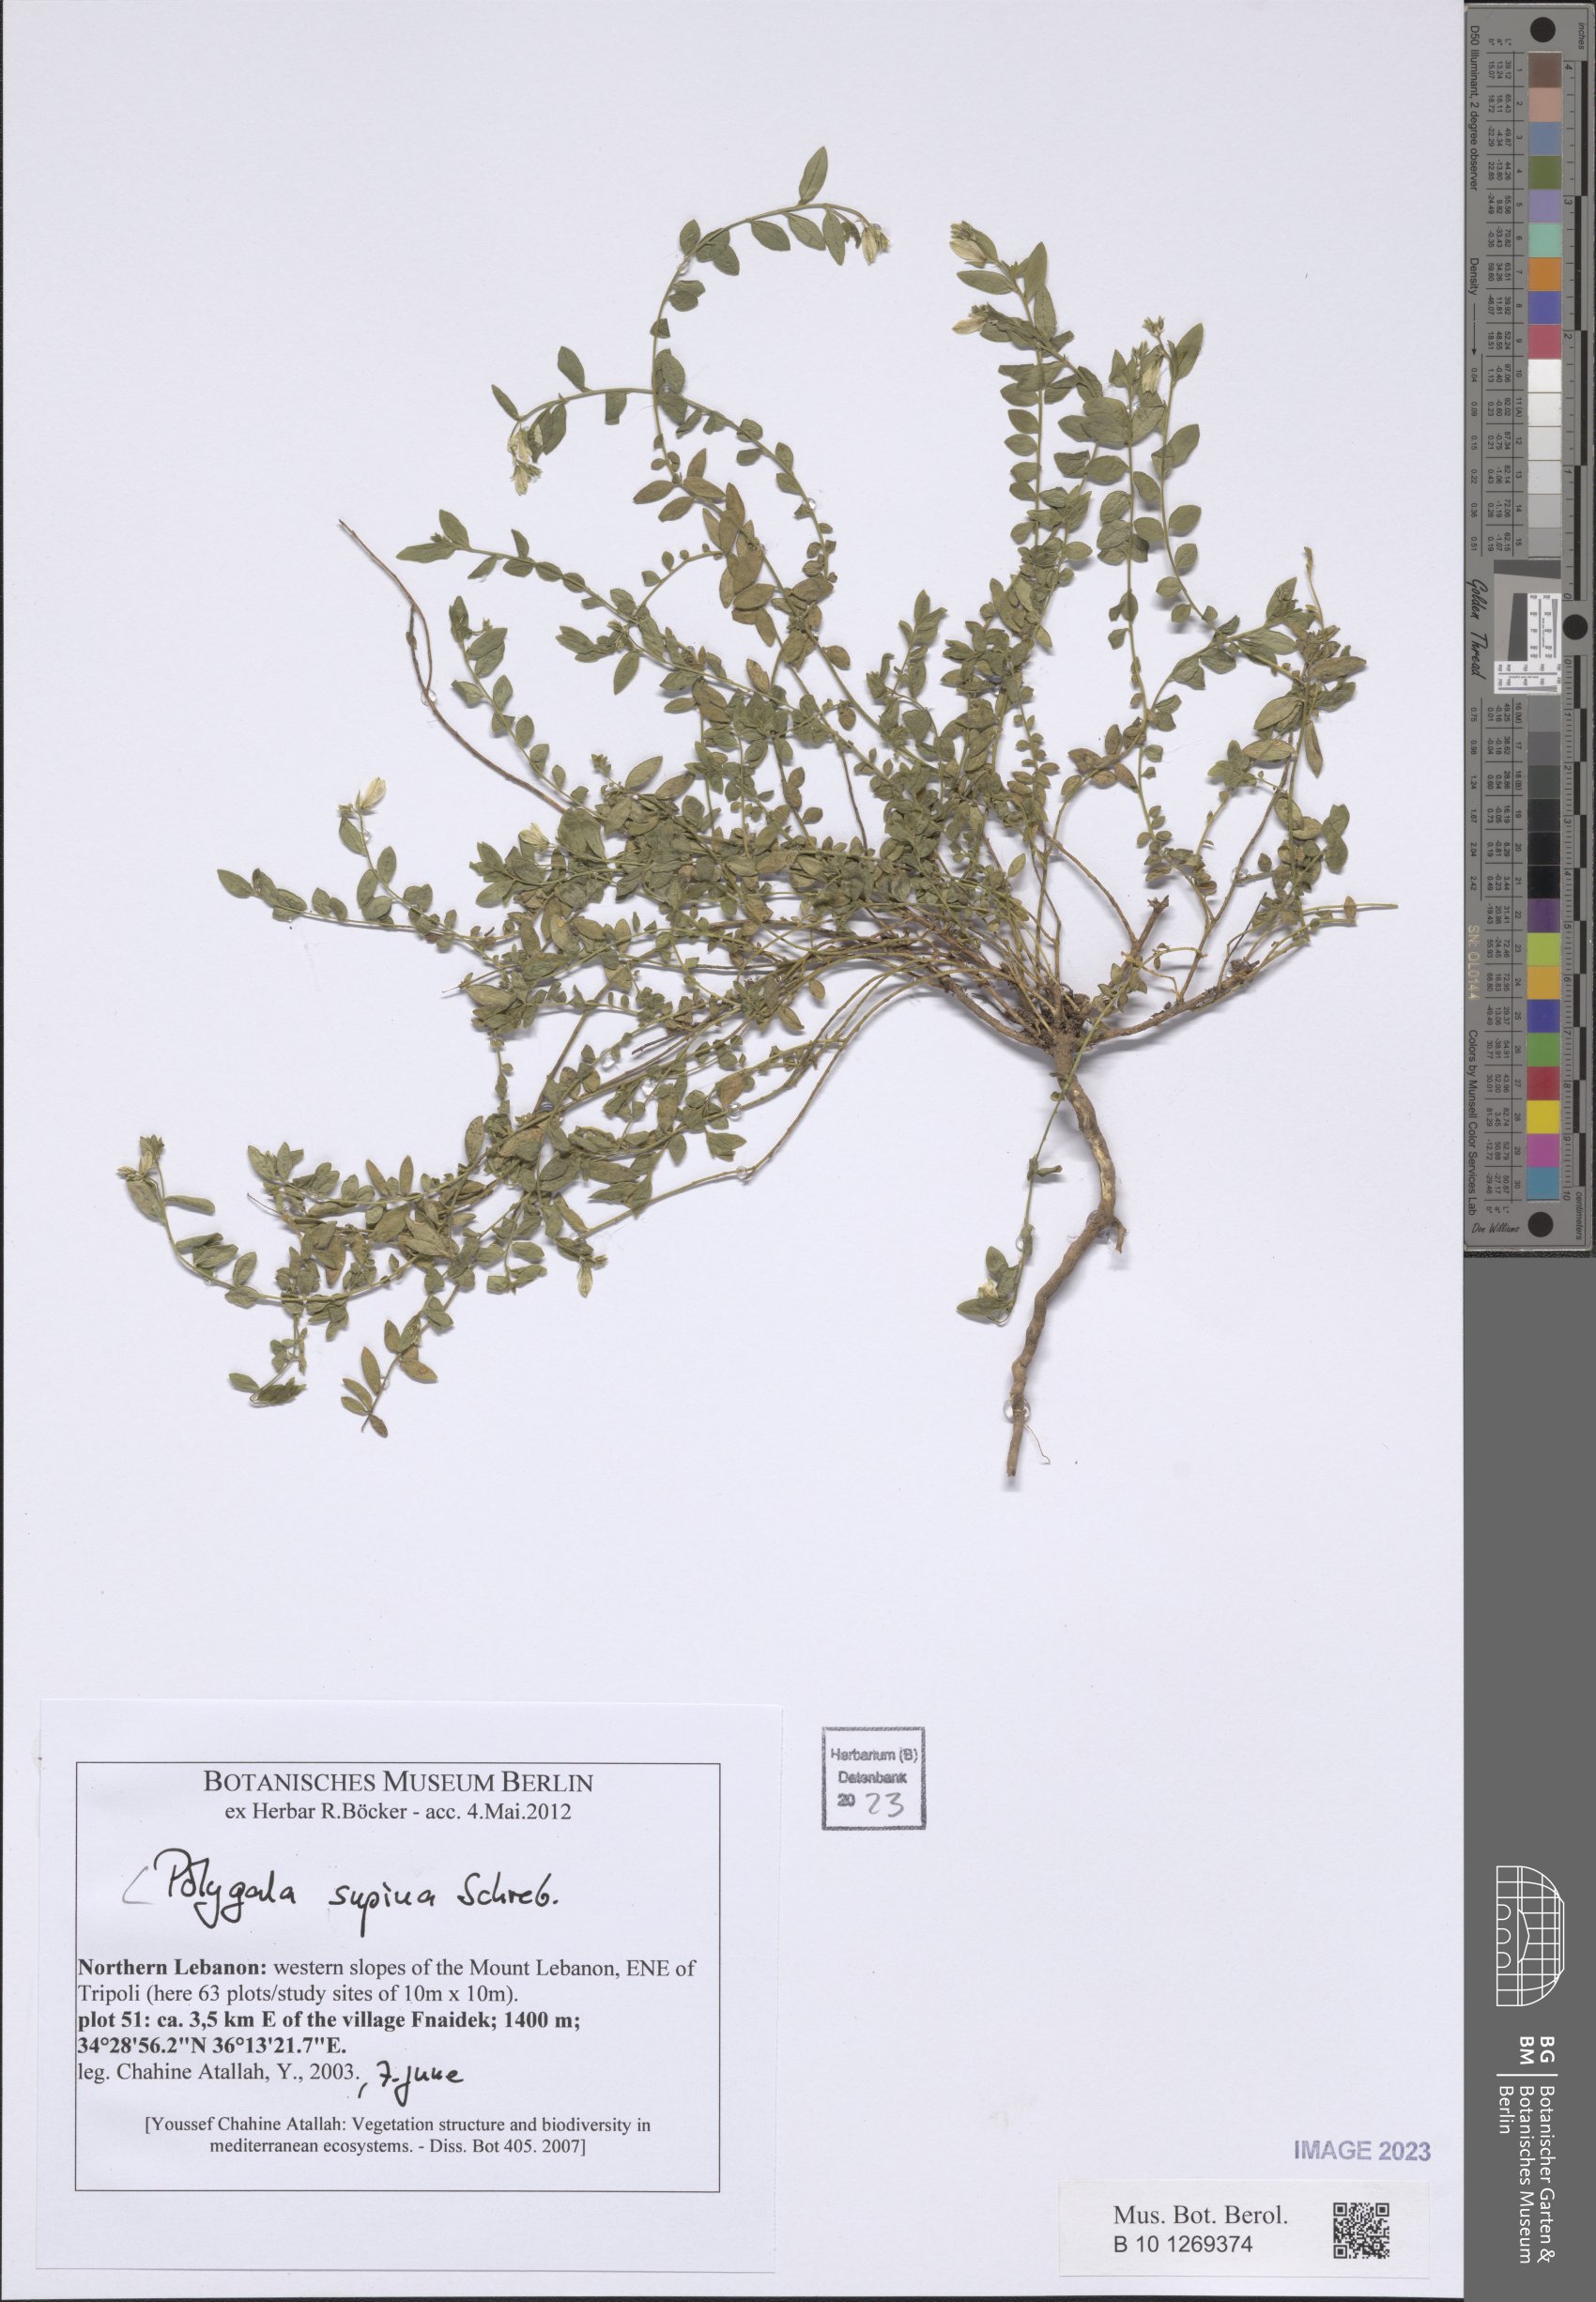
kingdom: Plantae
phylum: Tracheophyta
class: Magnoliopsida
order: Fabales
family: Polygalaceae
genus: Polygala
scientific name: Polygala supina
